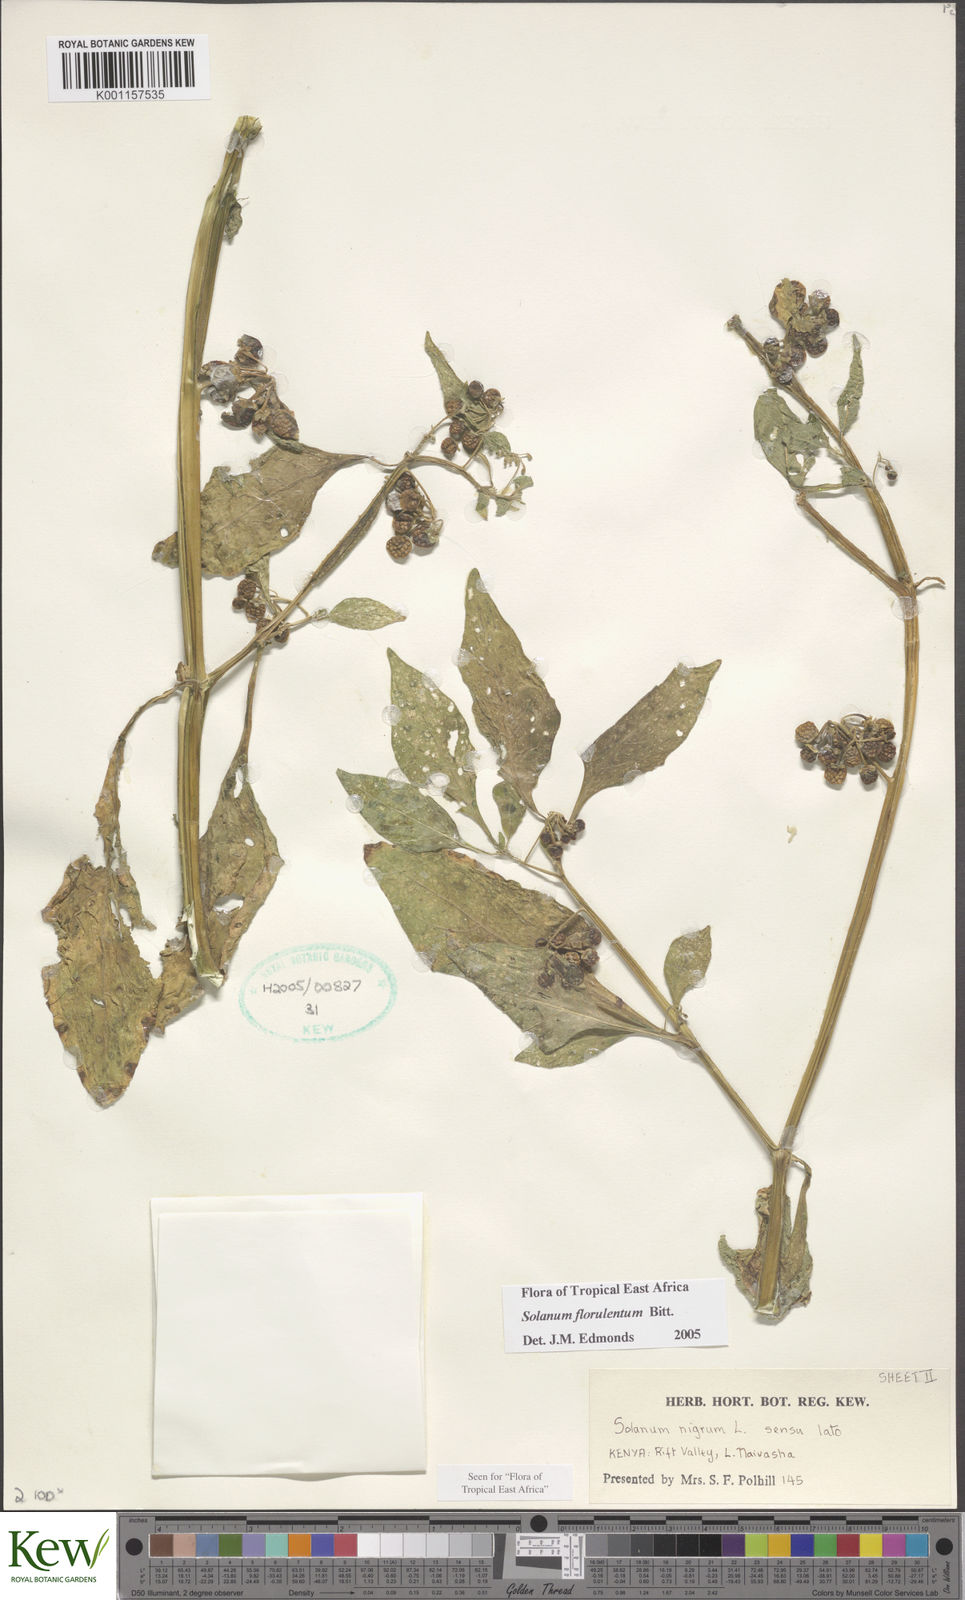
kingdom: Plantae
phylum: Tracheophyta
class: Magnoliopsida
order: Solanales
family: Solanaceae
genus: Solanum
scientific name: Solanum tarderemotum
